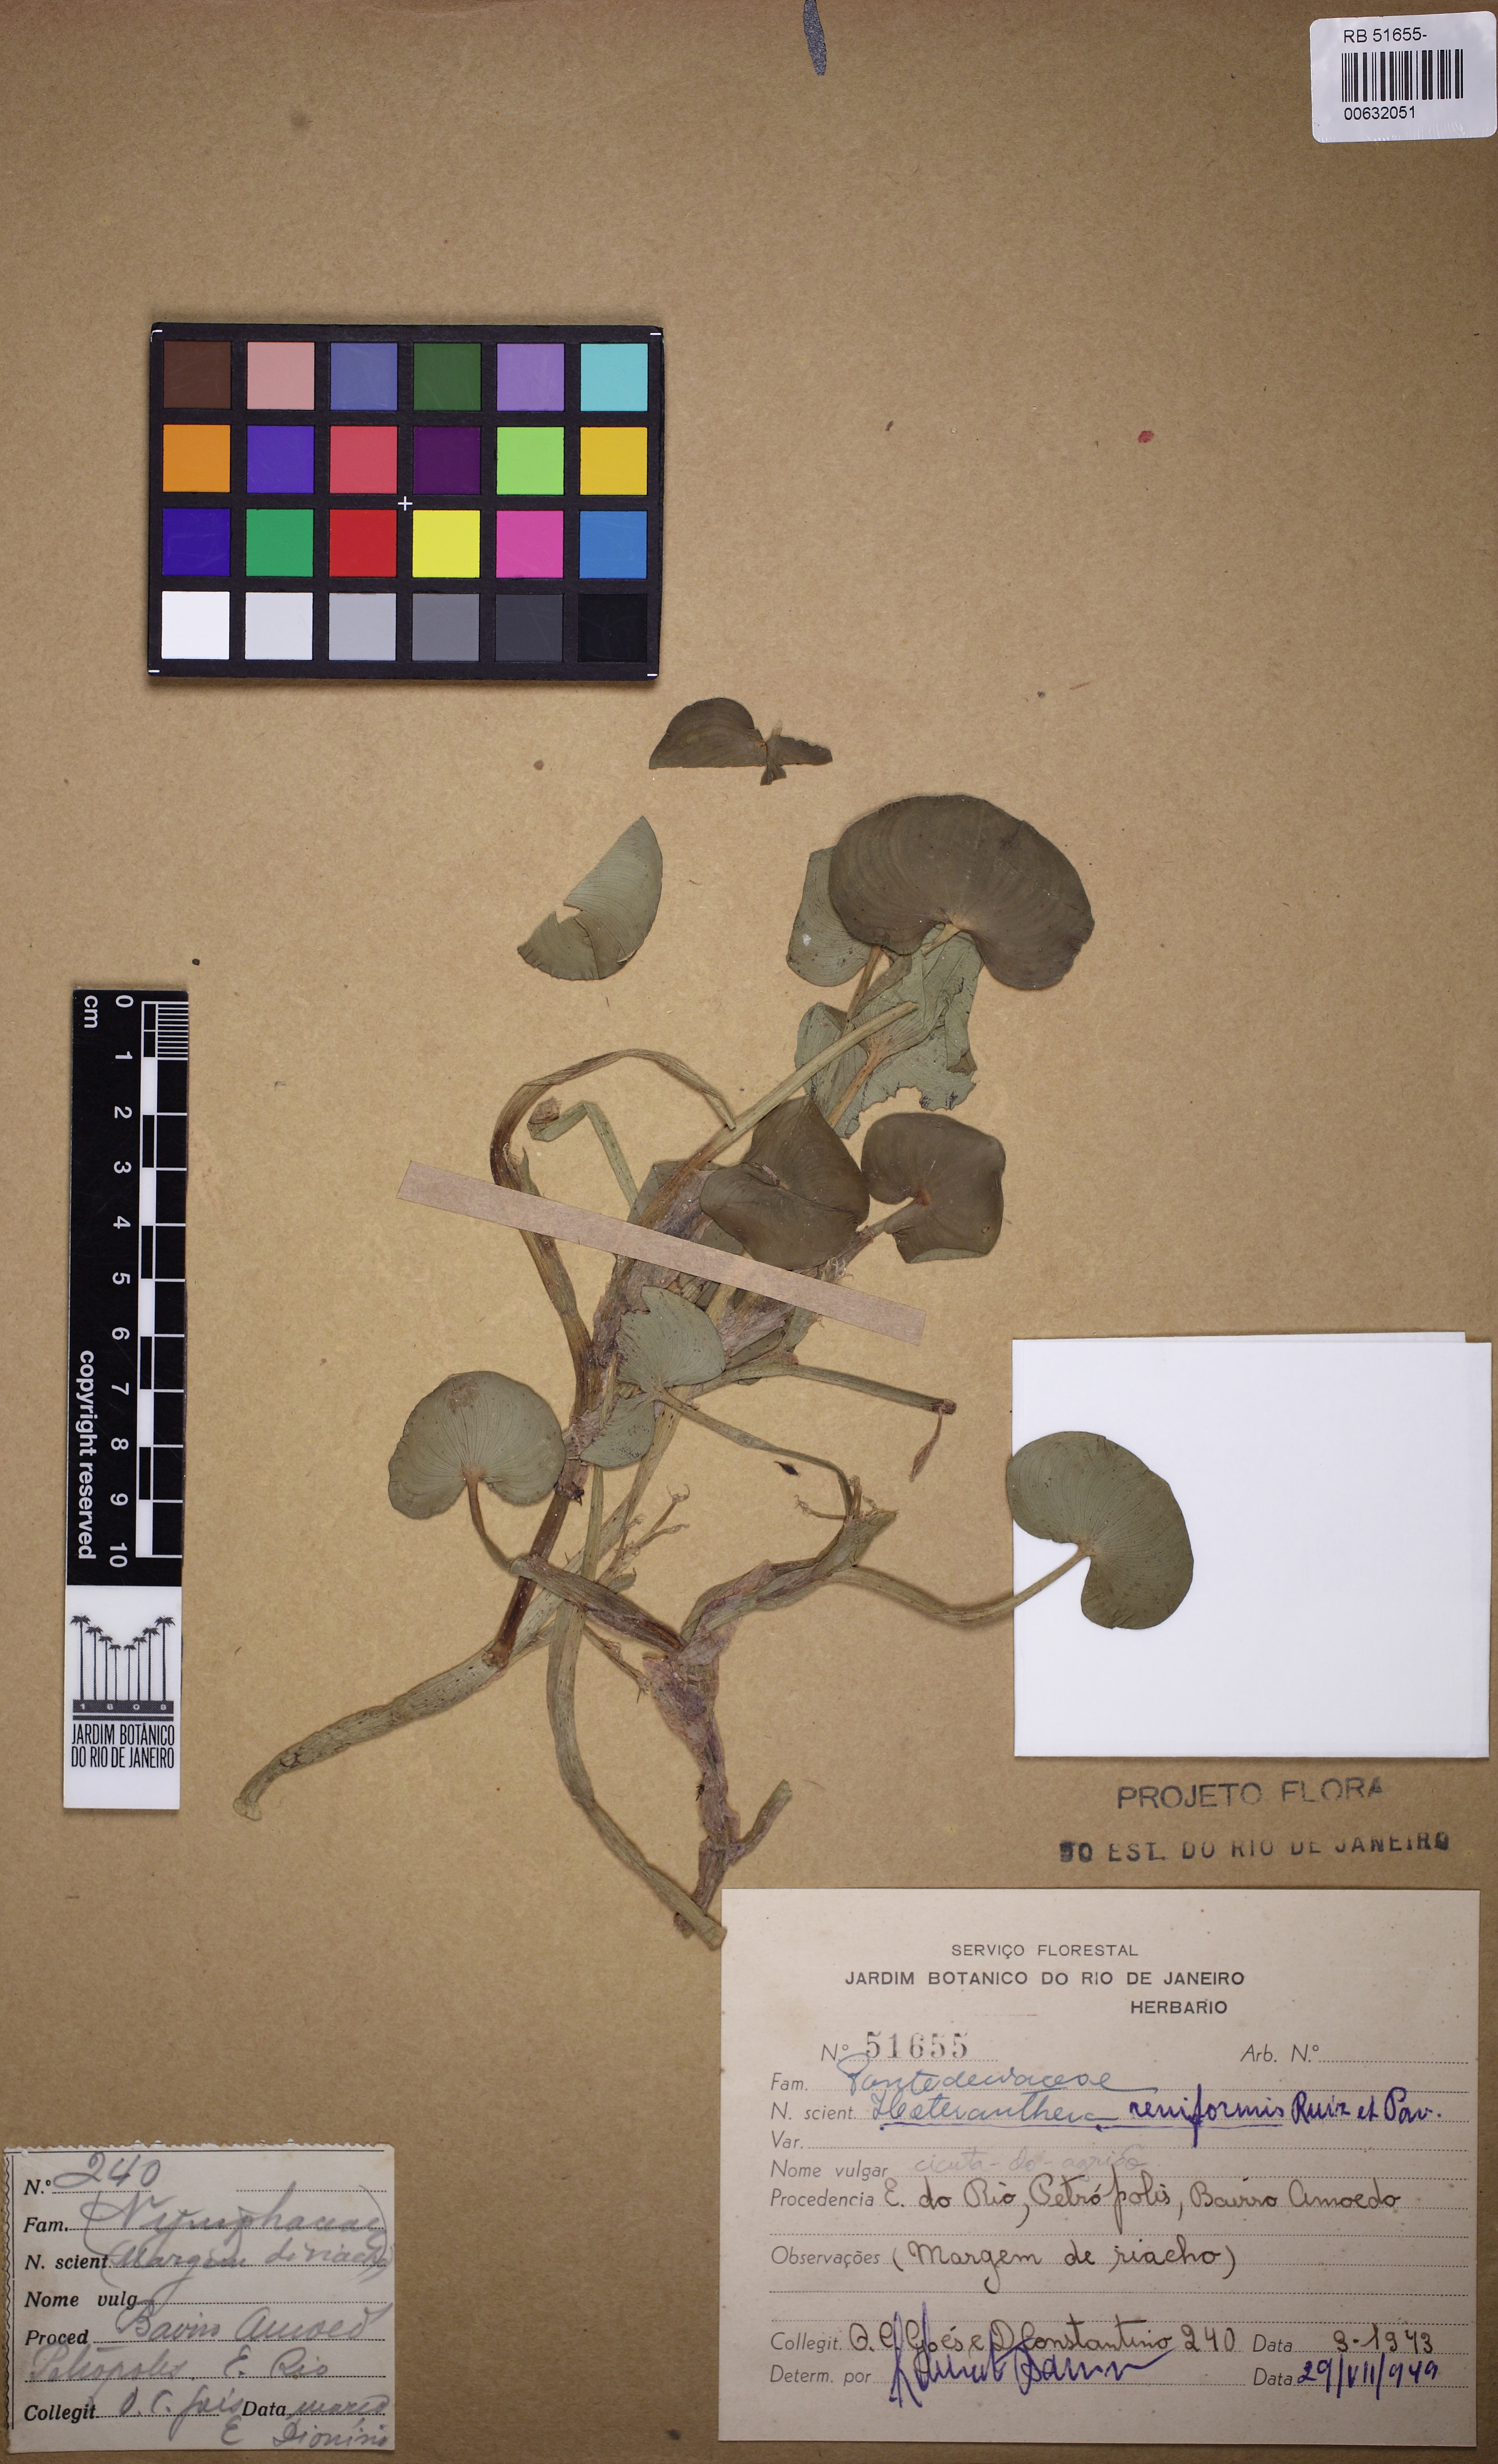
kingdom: Plantae
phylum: Tracheophyta
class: Liliopsida
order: Commelinales
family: Pontederiaceae
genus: Heteranthera
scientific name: Heteranthera reniformis
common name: Kidneyleaf mudplantain
